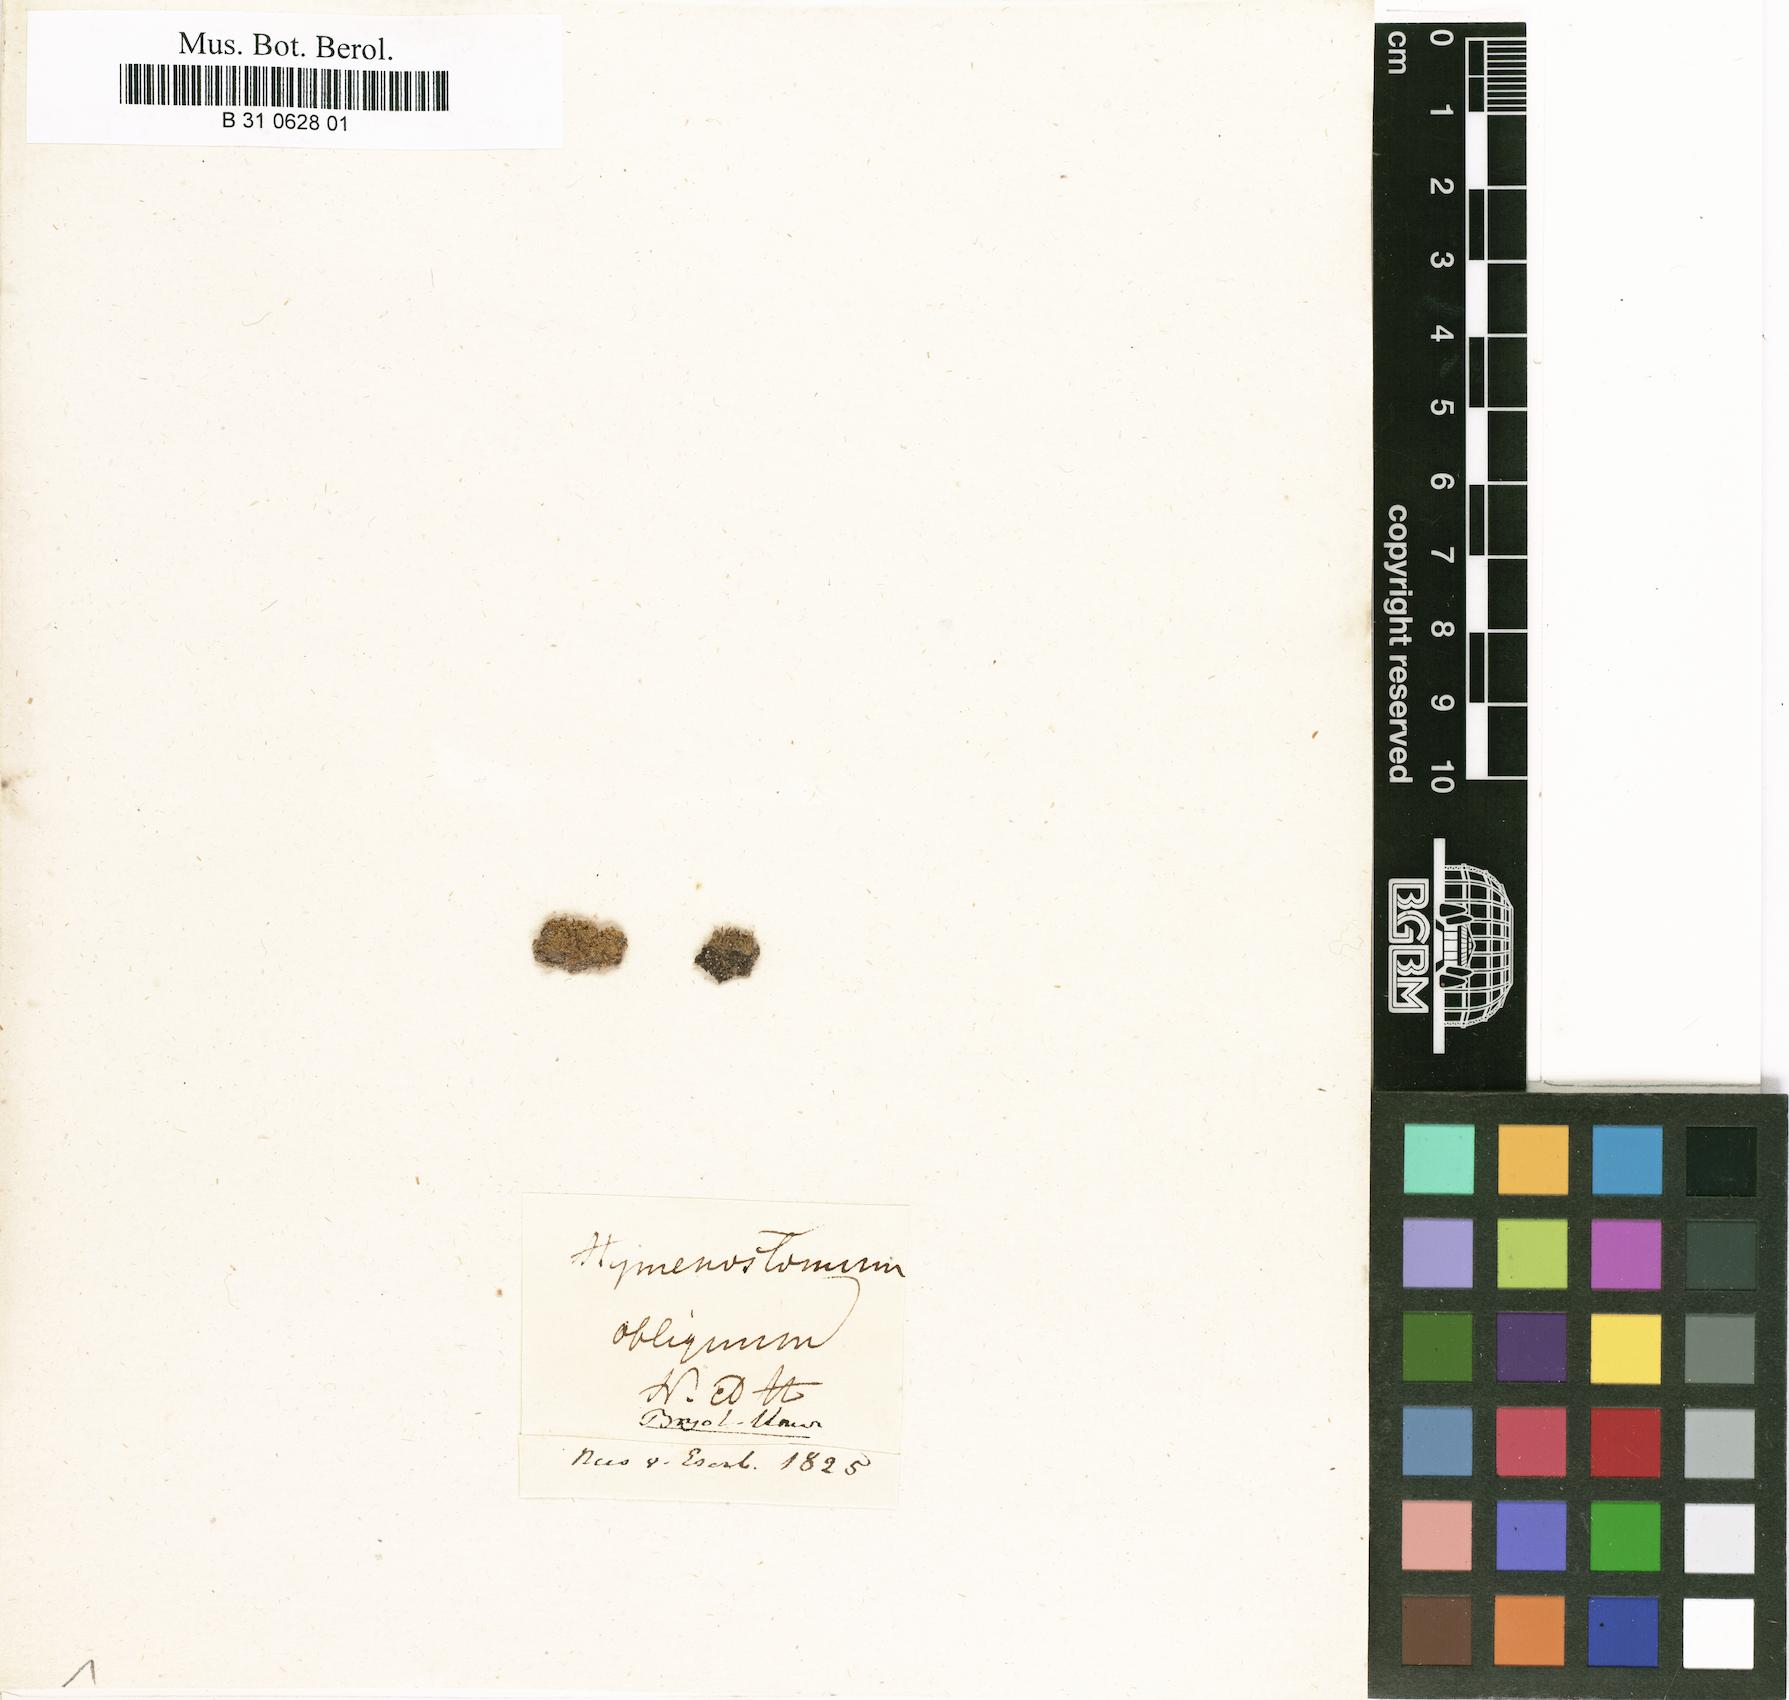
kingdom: Plantae
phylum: Bryophyta
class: Bryopsida
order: Pottiales
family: Pottiaceae
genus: Weissia
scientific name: Weissia brachycarpa
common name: Small-mouthed beardless-moss
